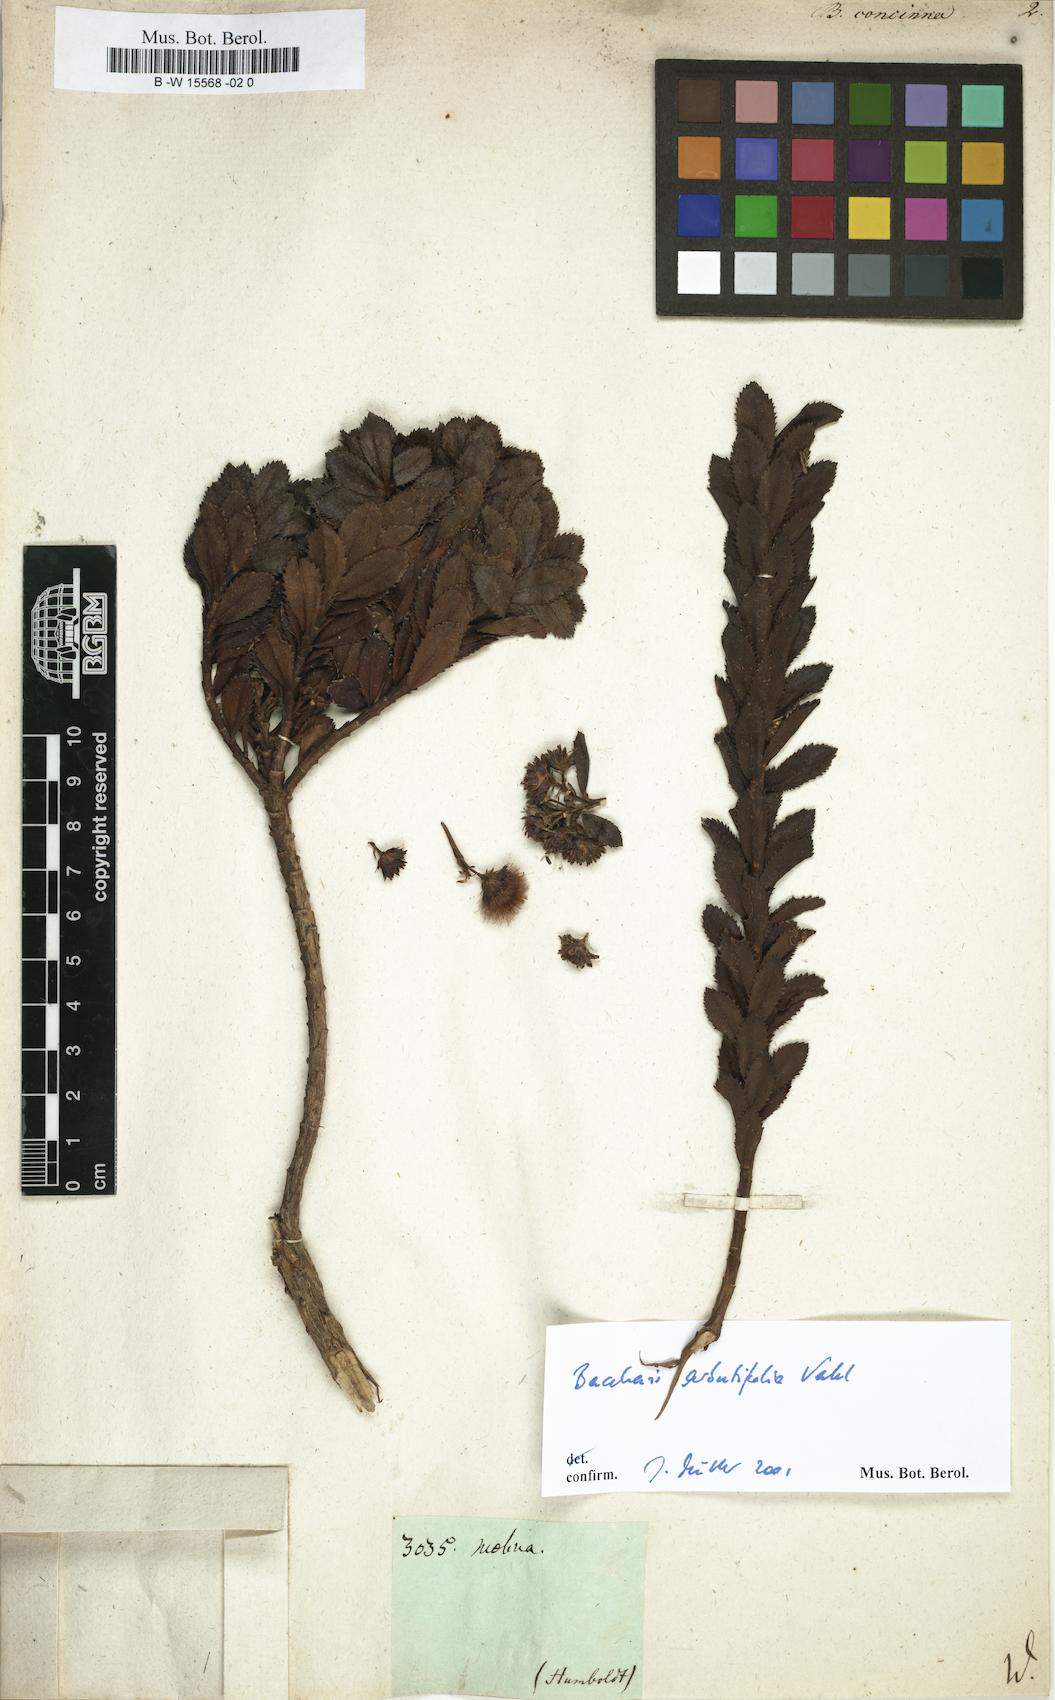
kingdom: Plantae
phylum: Tracheophyta
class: Magnoliopsida
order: Asterales
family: Asteraceae
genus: Baccharis
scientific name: Baccharis concinna
